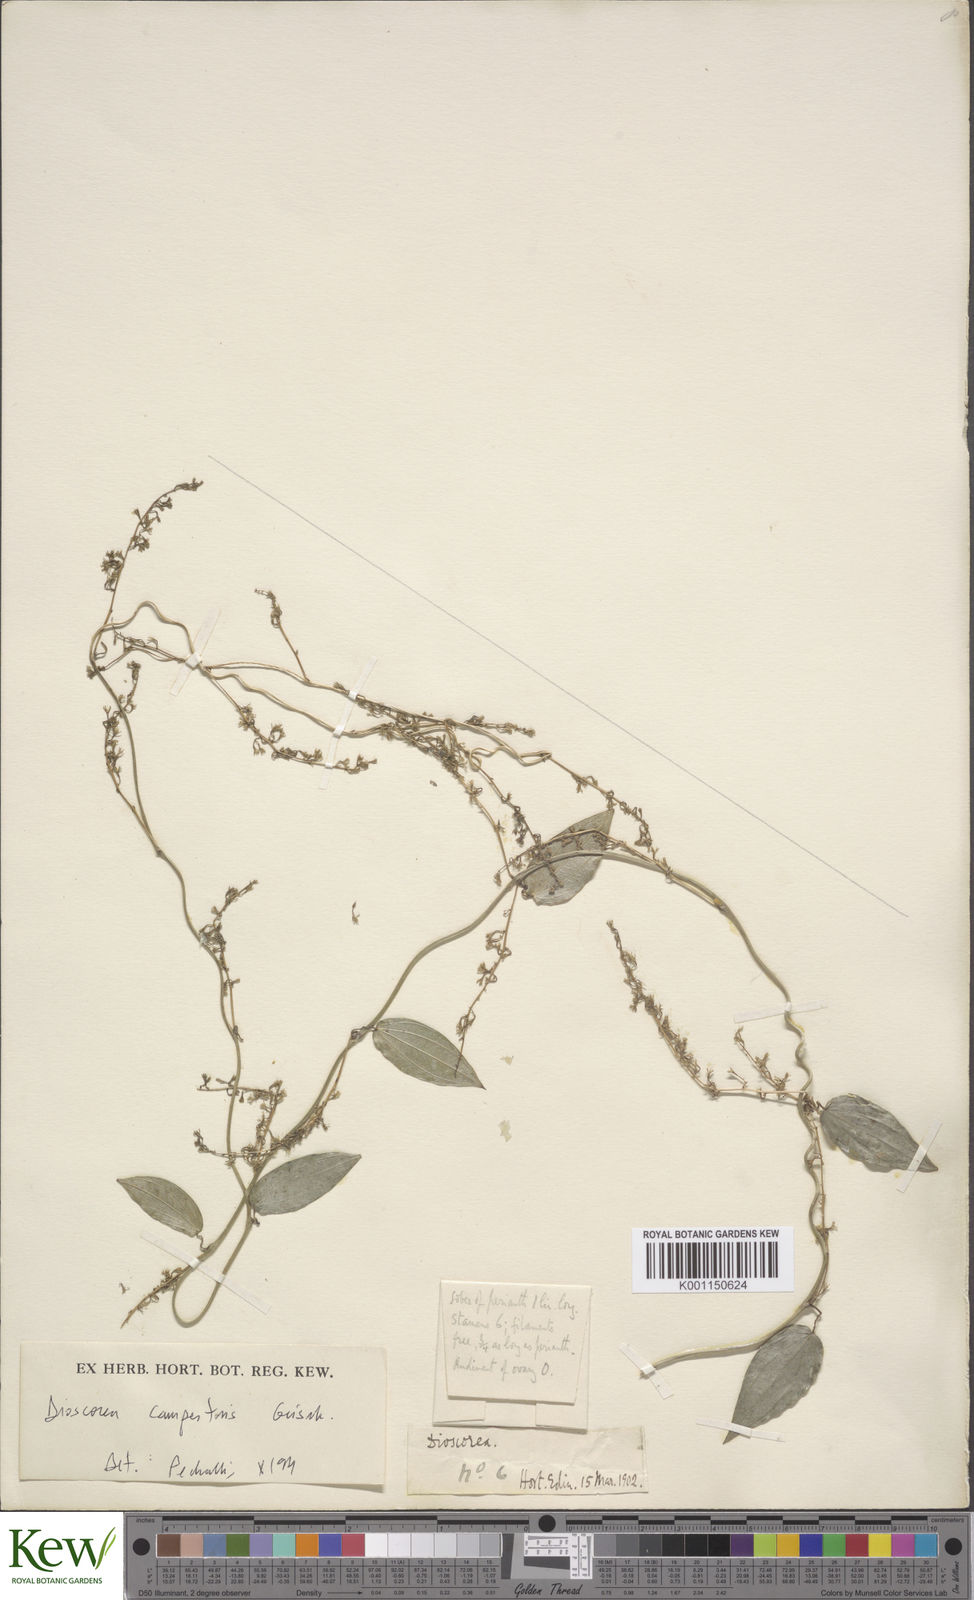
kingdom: Plantae
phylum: Tracheophyta
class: Liliopsida
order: Dioscoreales
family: Dioscoreaceae
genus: Dioscorea
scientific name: Dioscorea campestris
